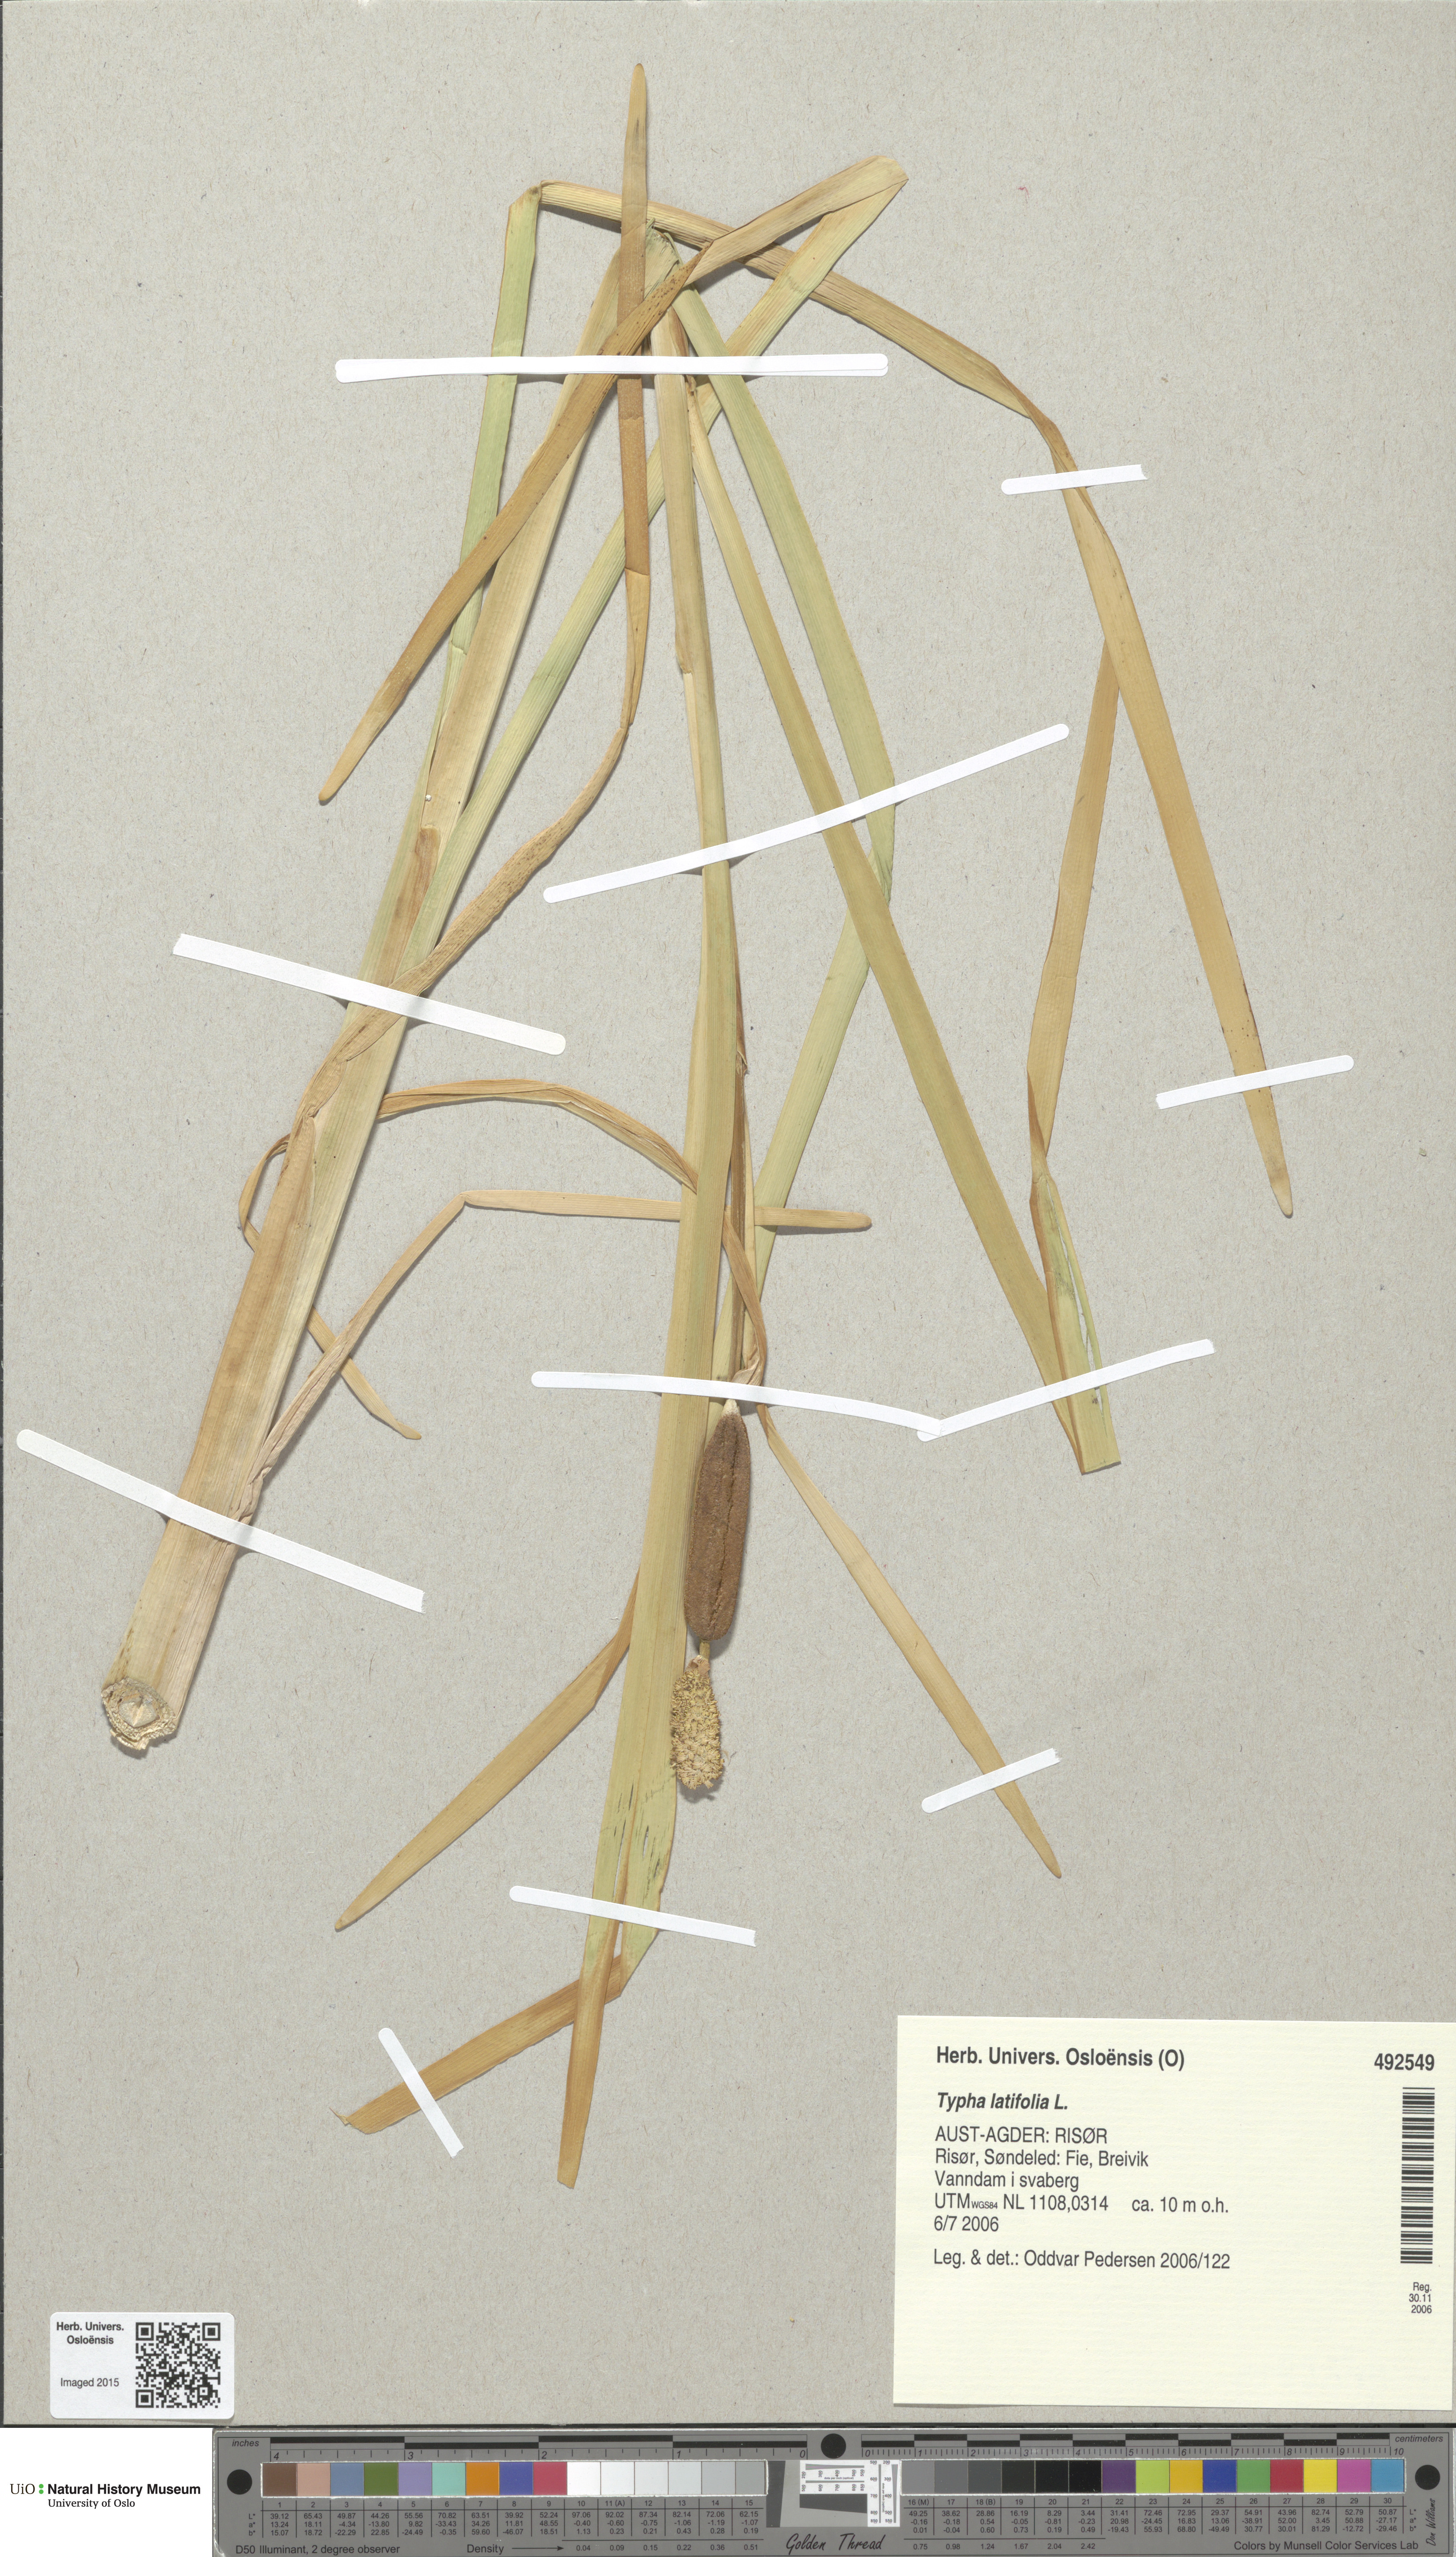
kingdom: Plantae
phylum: Tracheophyta
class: Liliopsida
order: Poales
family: Typhaceae
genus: Typha
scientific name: Typha latifolia
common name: Broadleaf cattail
